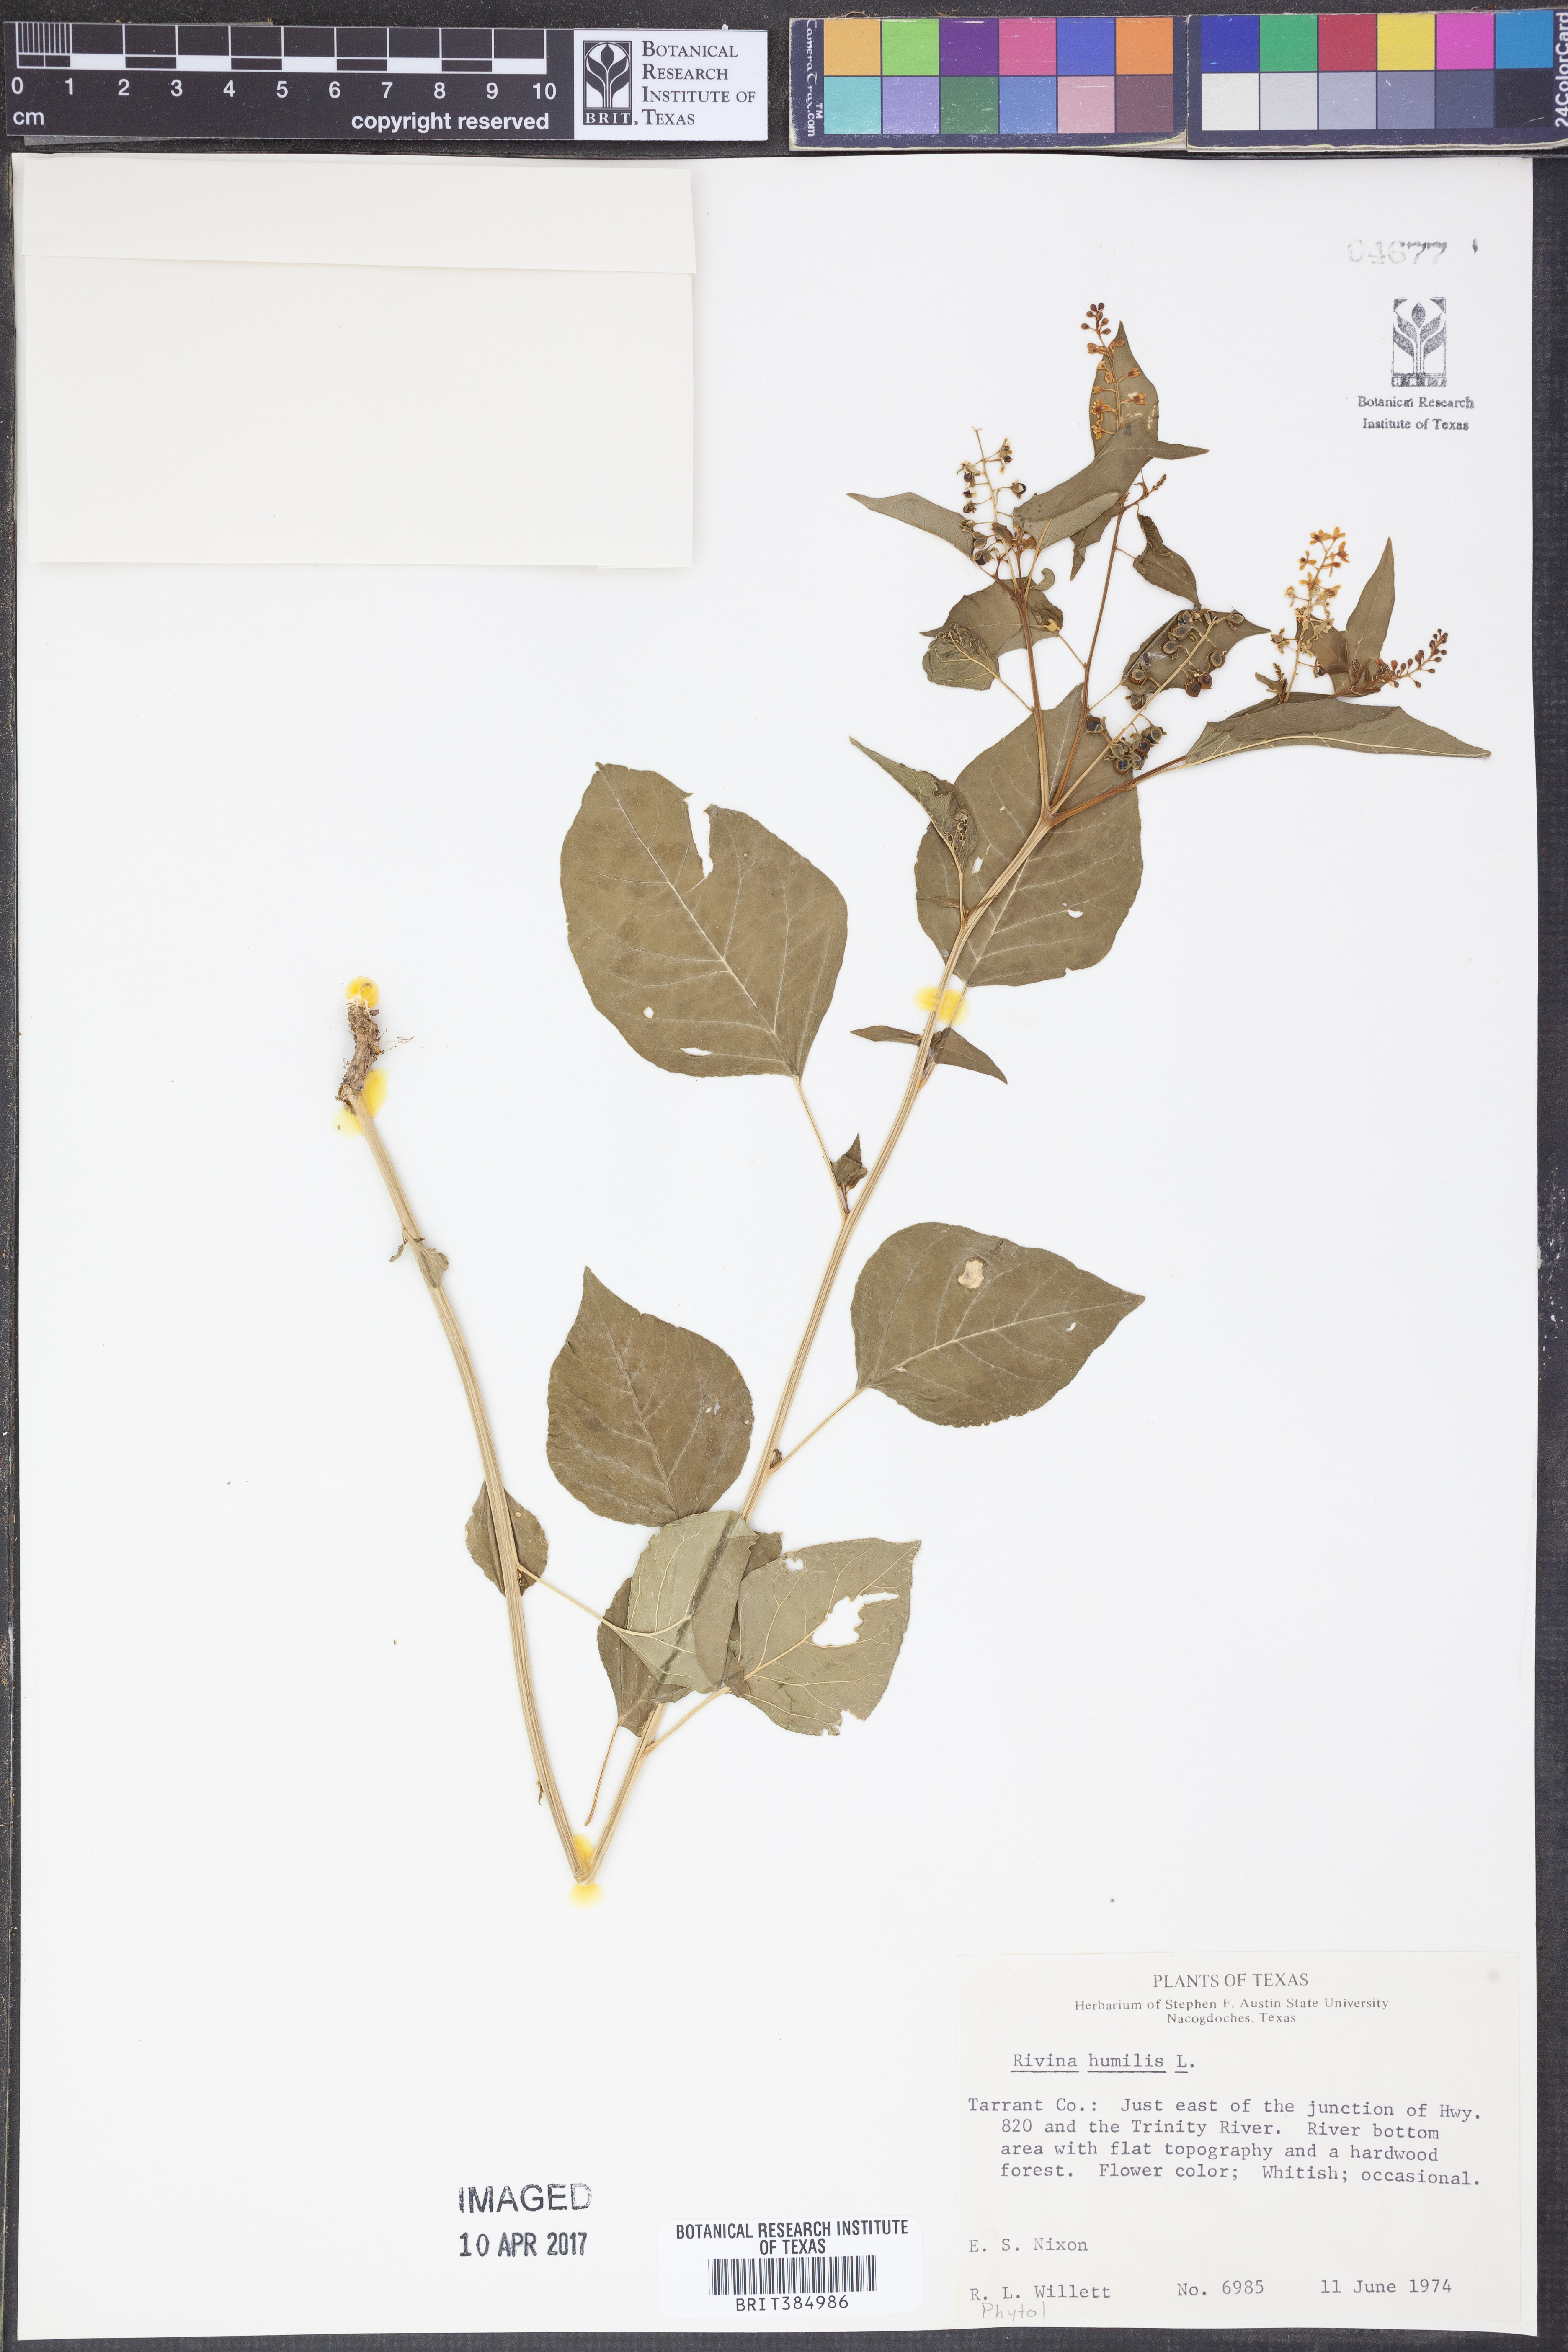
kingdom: Plantae
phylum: Tracheophyta
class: Magnoliopsida
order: Caryophyllales
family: Phytolaccaceae
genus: Rivina
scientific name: Rivina humilis
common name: Rougeplant
